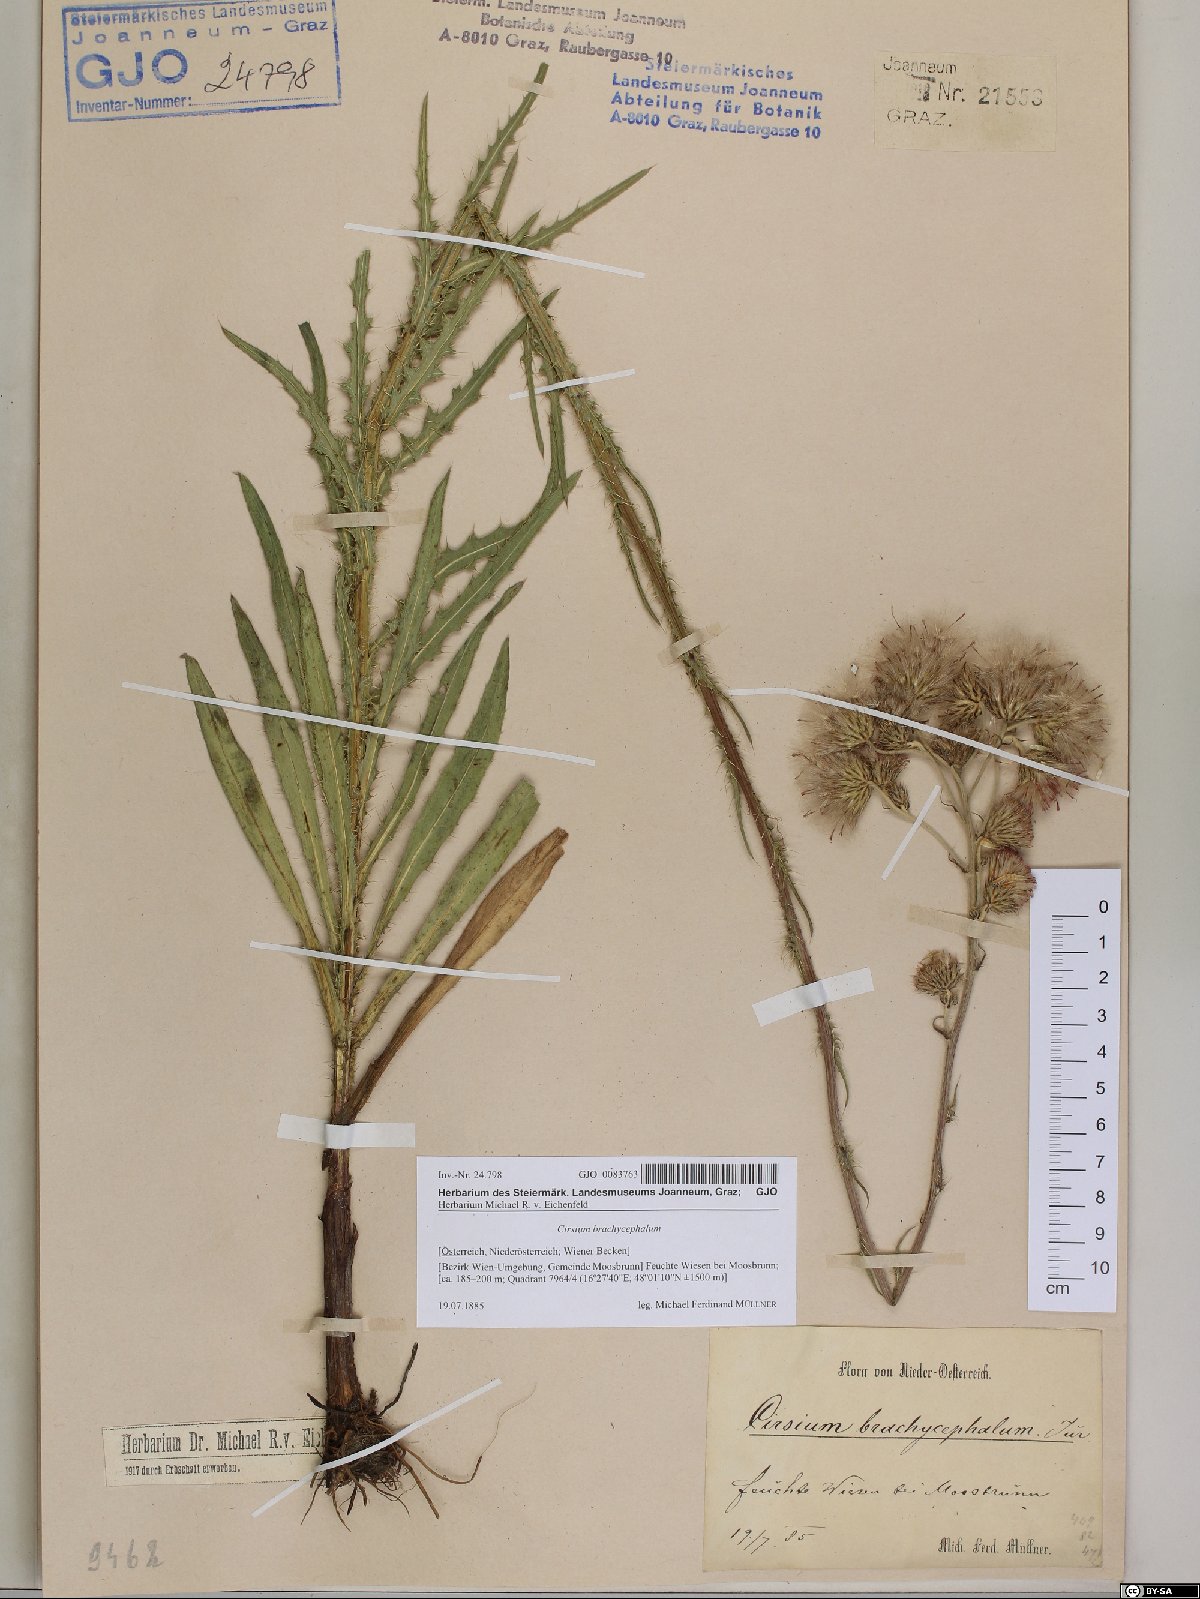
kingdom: Plantae
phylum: Tracheophyta
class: Magnoliopsida
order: Asterales
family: Asteraceae
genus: Cirsium
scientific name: Cirsium brachycephalum
